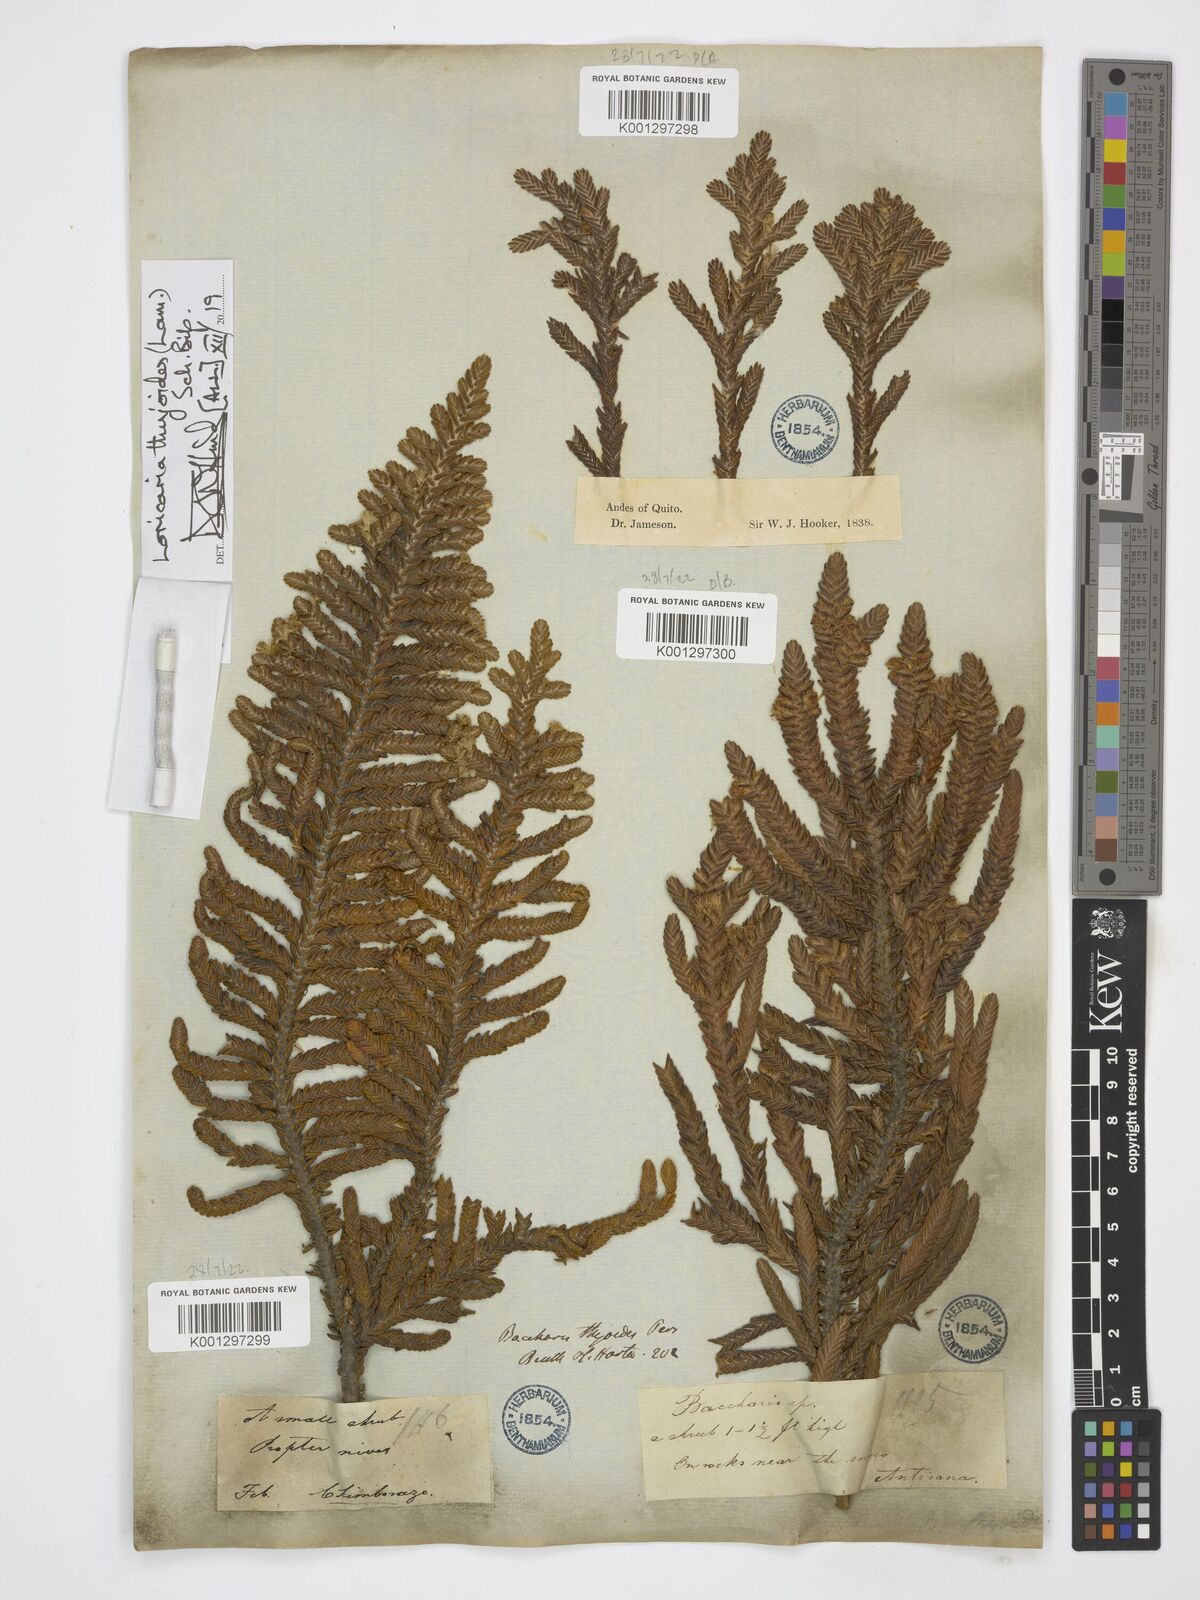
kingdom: Plantae
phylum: Tracheophyta
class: Magnoliopsida
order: Asterales
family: Asteraceae
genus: Andicolea
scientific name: Andicolea thuyoides
